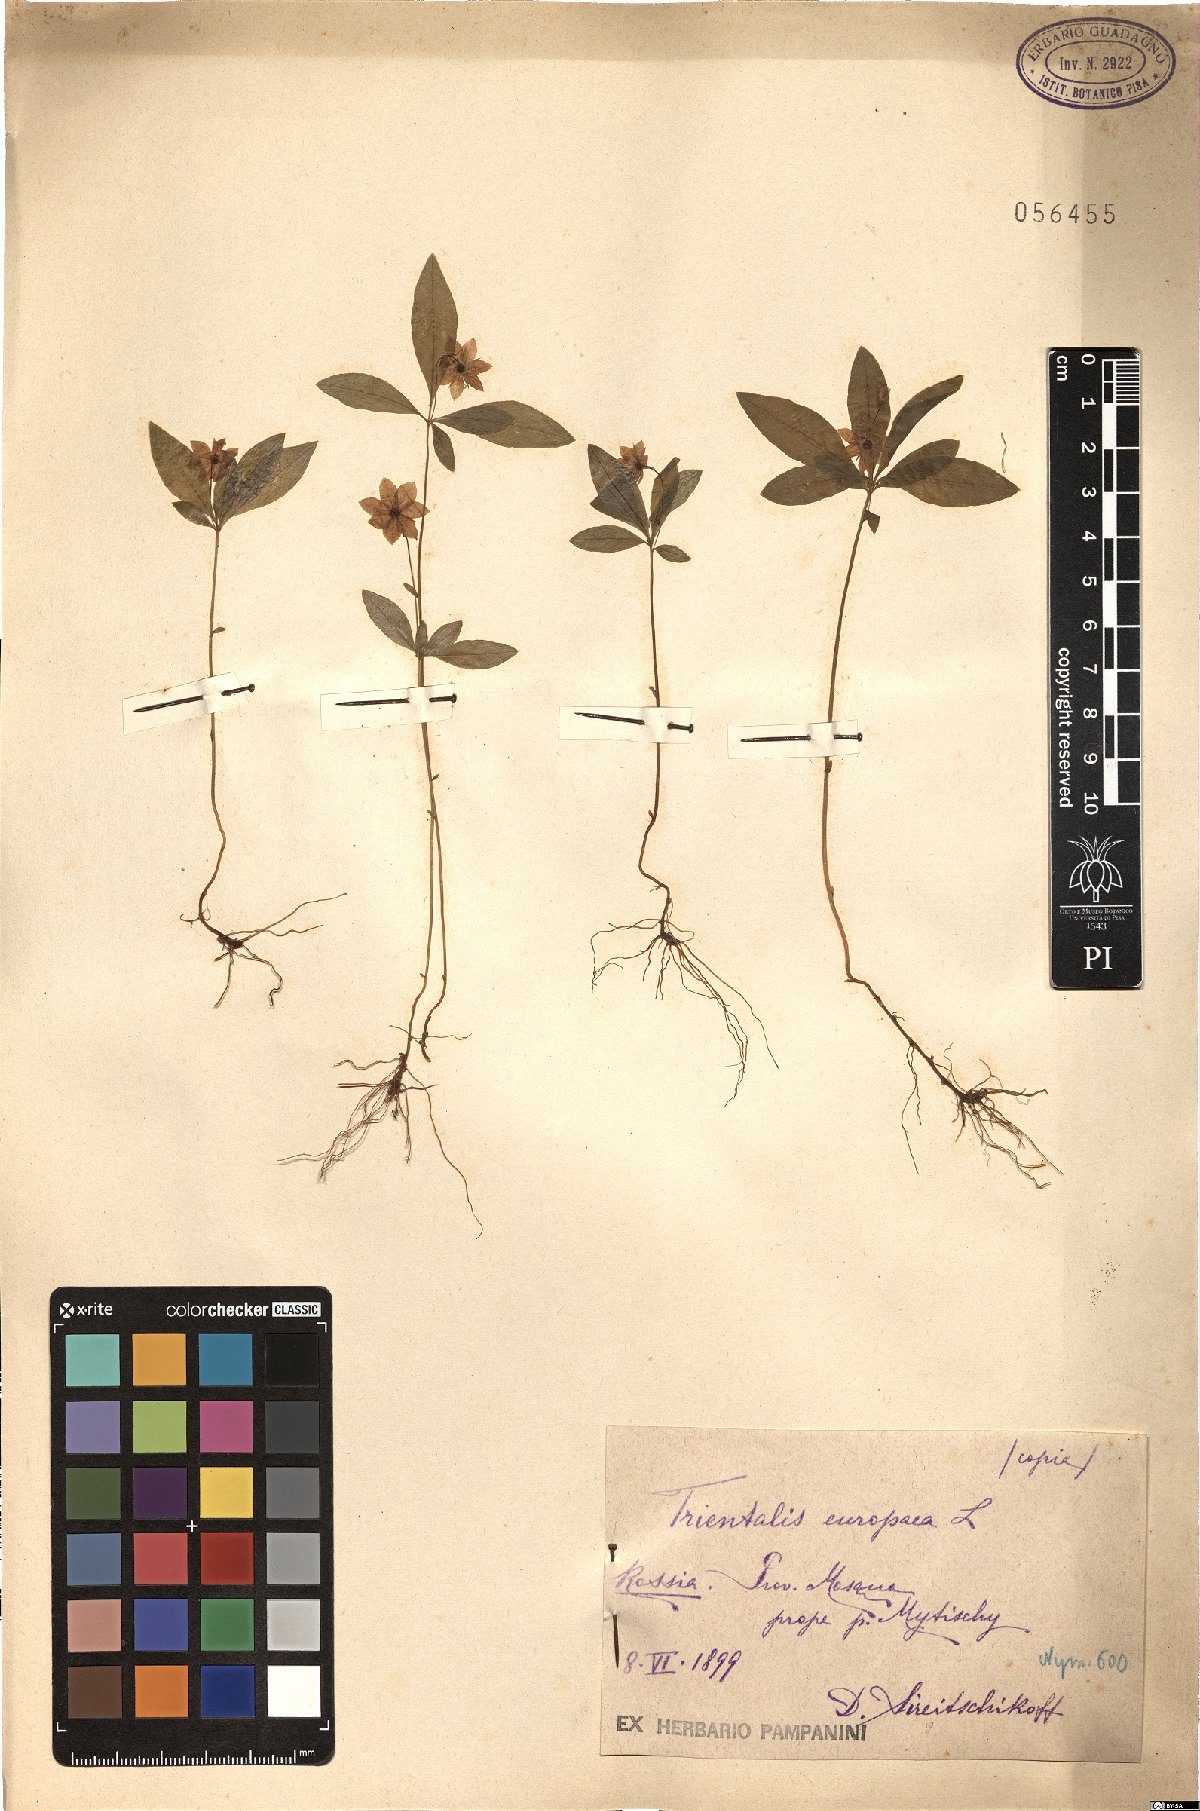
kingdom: Plantae
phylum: Tracheophyta
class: Magnoliopsida
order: Ericales
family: Primulaceae
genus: Lysimachia
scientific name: Lysimachia europaea
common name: Arctic starflower
